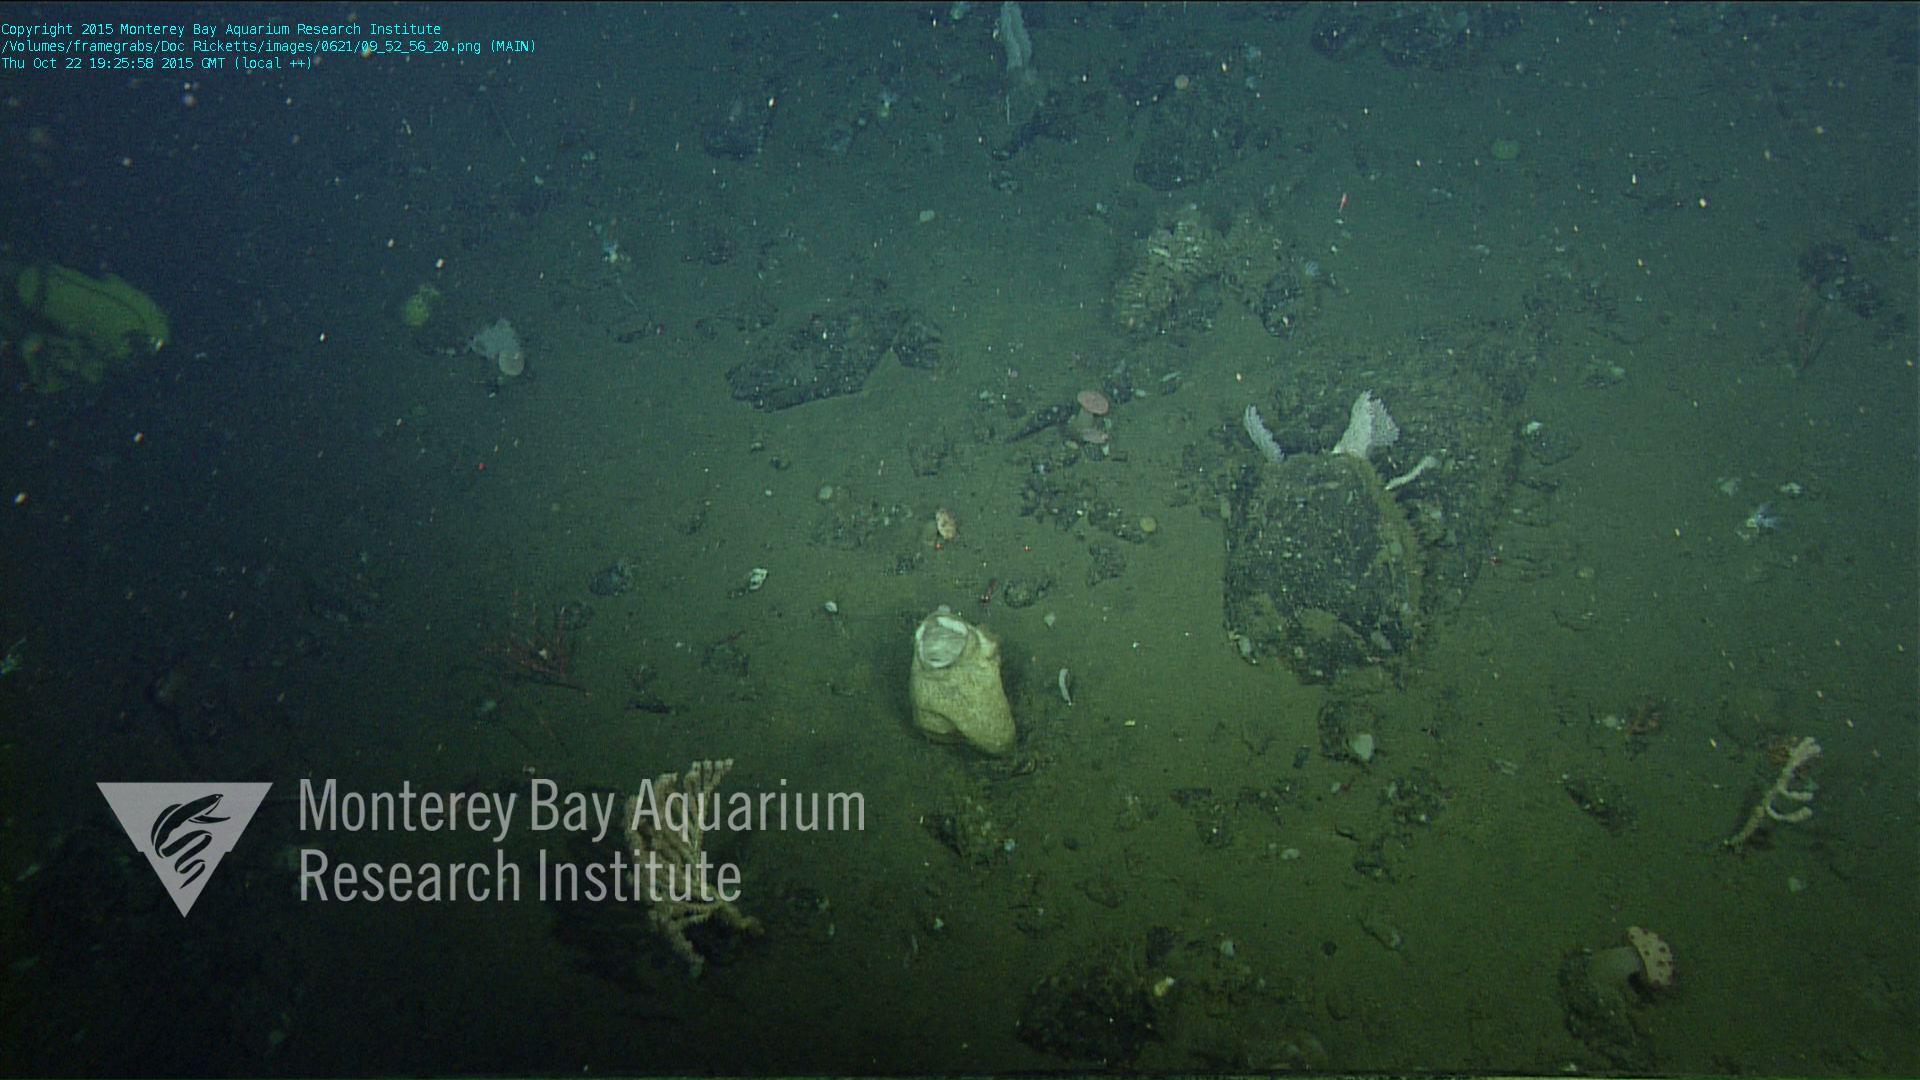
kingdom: Animalia
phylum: Cnidaria
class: Anthozoa
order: Scleralcyonacea
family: Coralliidae
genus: Heteropolypus
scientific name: Heteropolypus ritteri
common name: Ritter's soft coral
